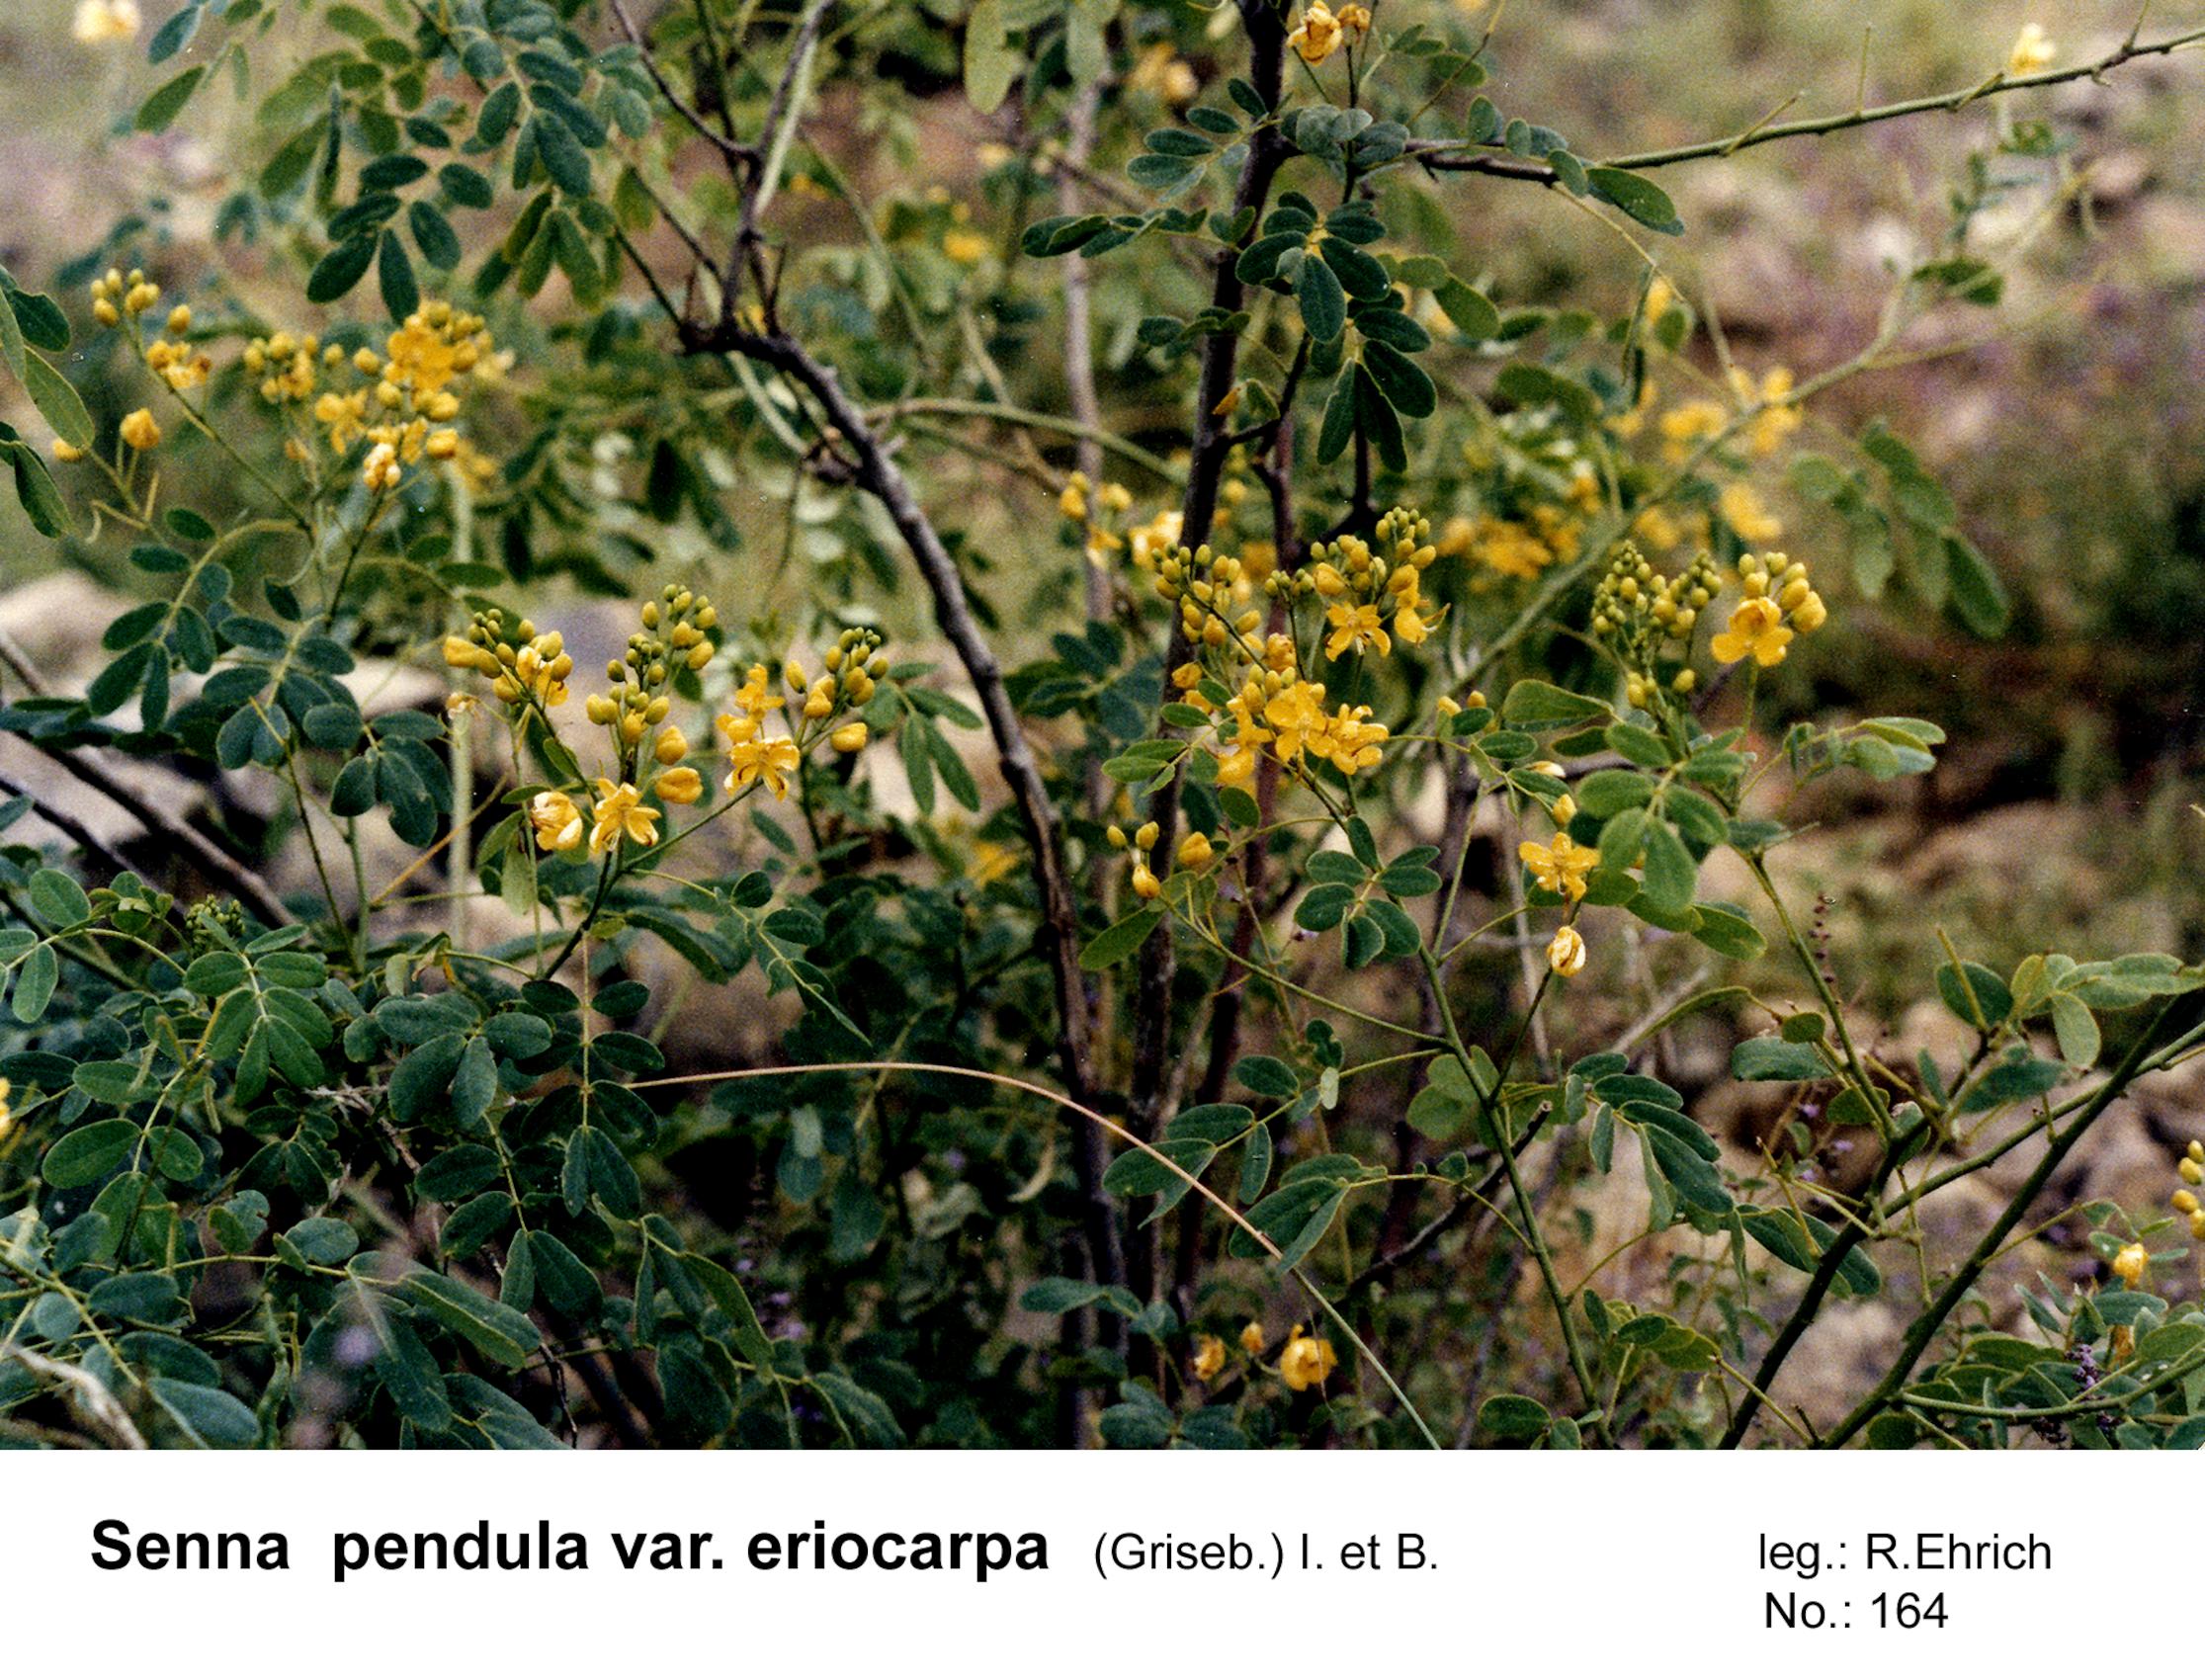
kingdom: Plantae
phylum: Tracheophyta
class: Magnoliopsida
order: Fabales
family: Fabaceae
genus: Senna
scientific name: Senna pendula
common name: Easter cassia
